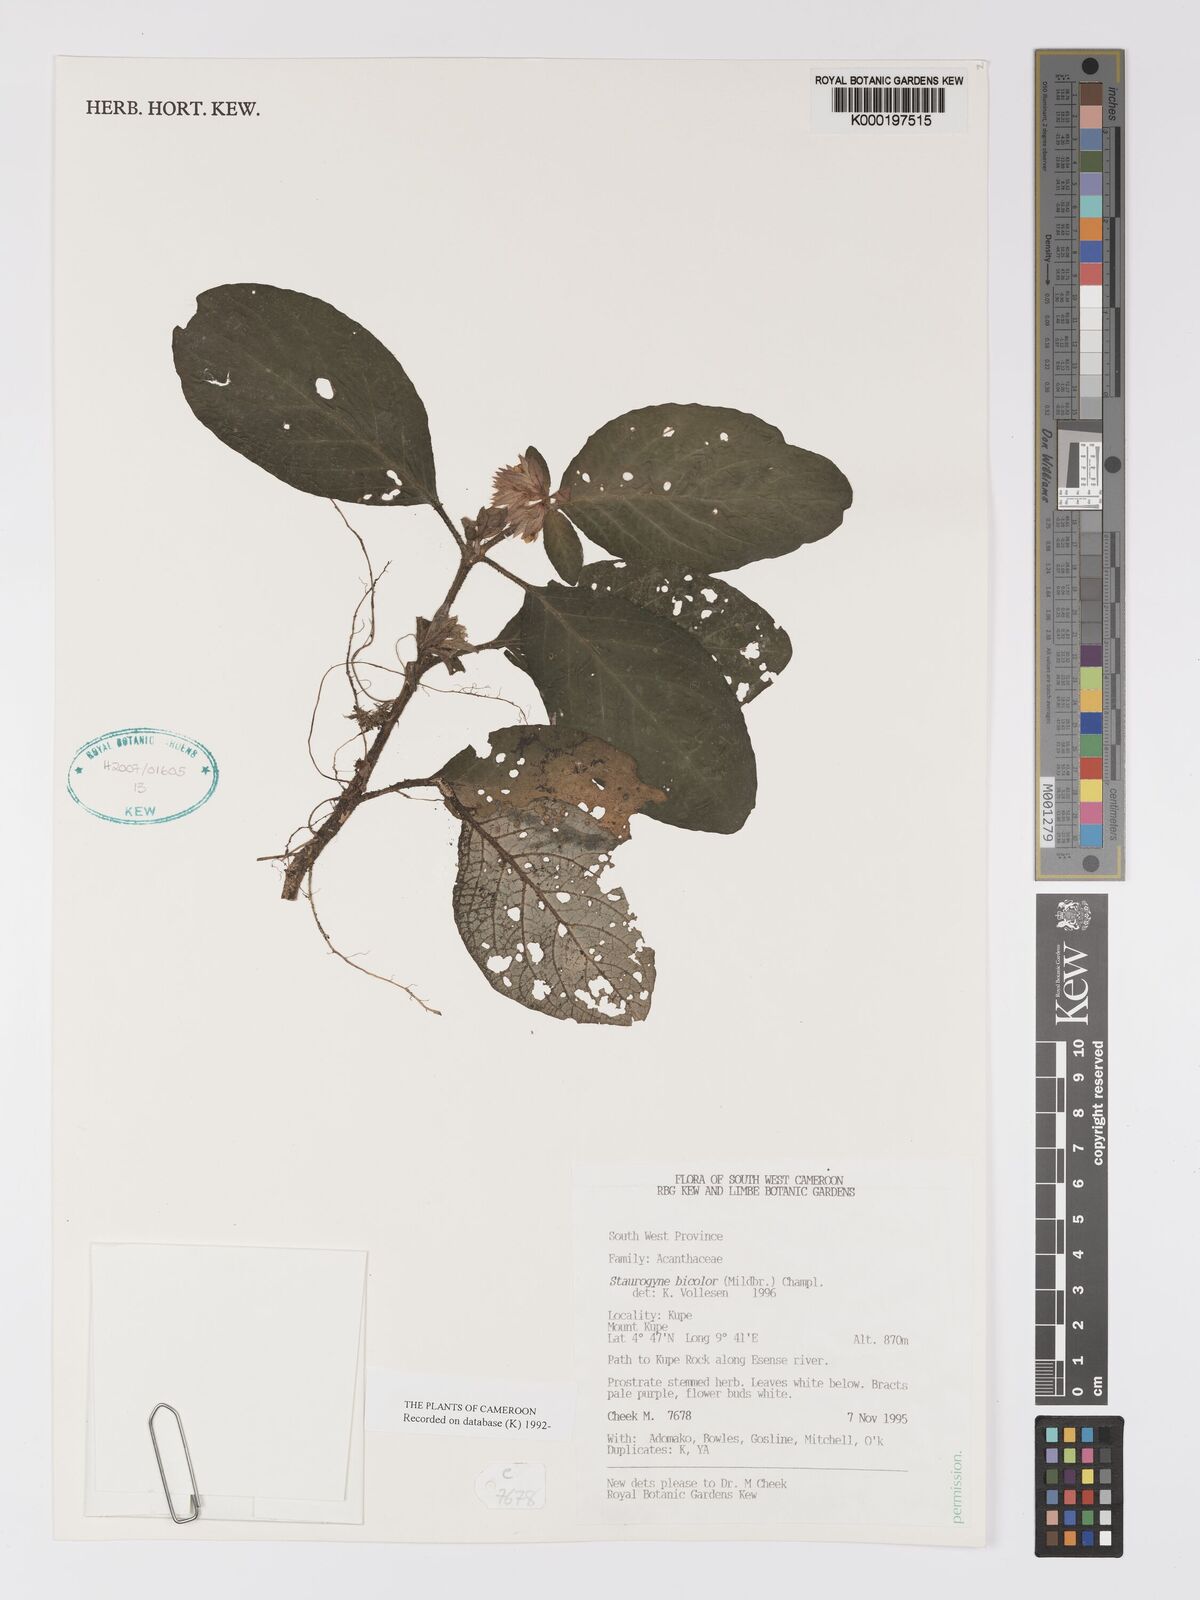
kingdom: Plantae
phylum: Tracheophyta
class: Magnoliopsida
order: Lamiales
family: Acanthaceae
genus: Staurogyne
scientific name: Staurogyne bicolor
